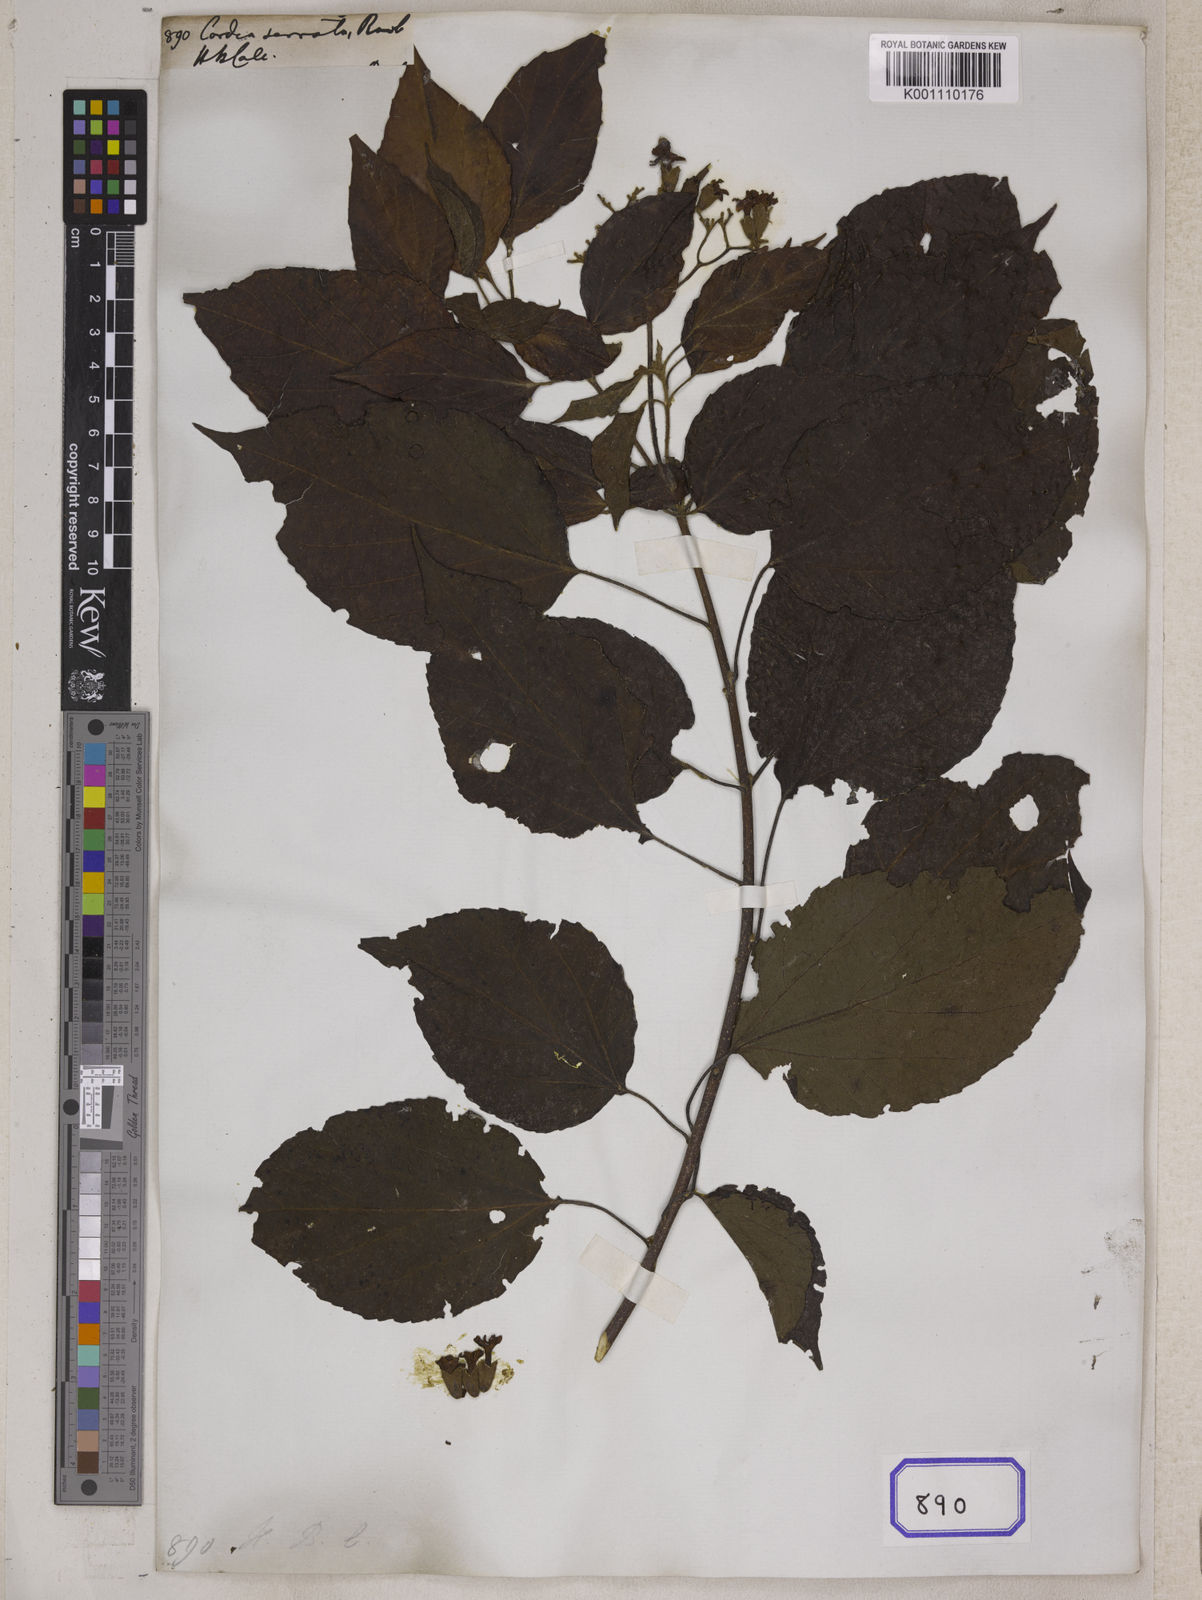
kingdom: Plantae
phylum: Tracheophyta
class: Magnoliopsida
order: Boraginales
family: Cordiaceae
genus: Cordia
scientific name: Cordia
